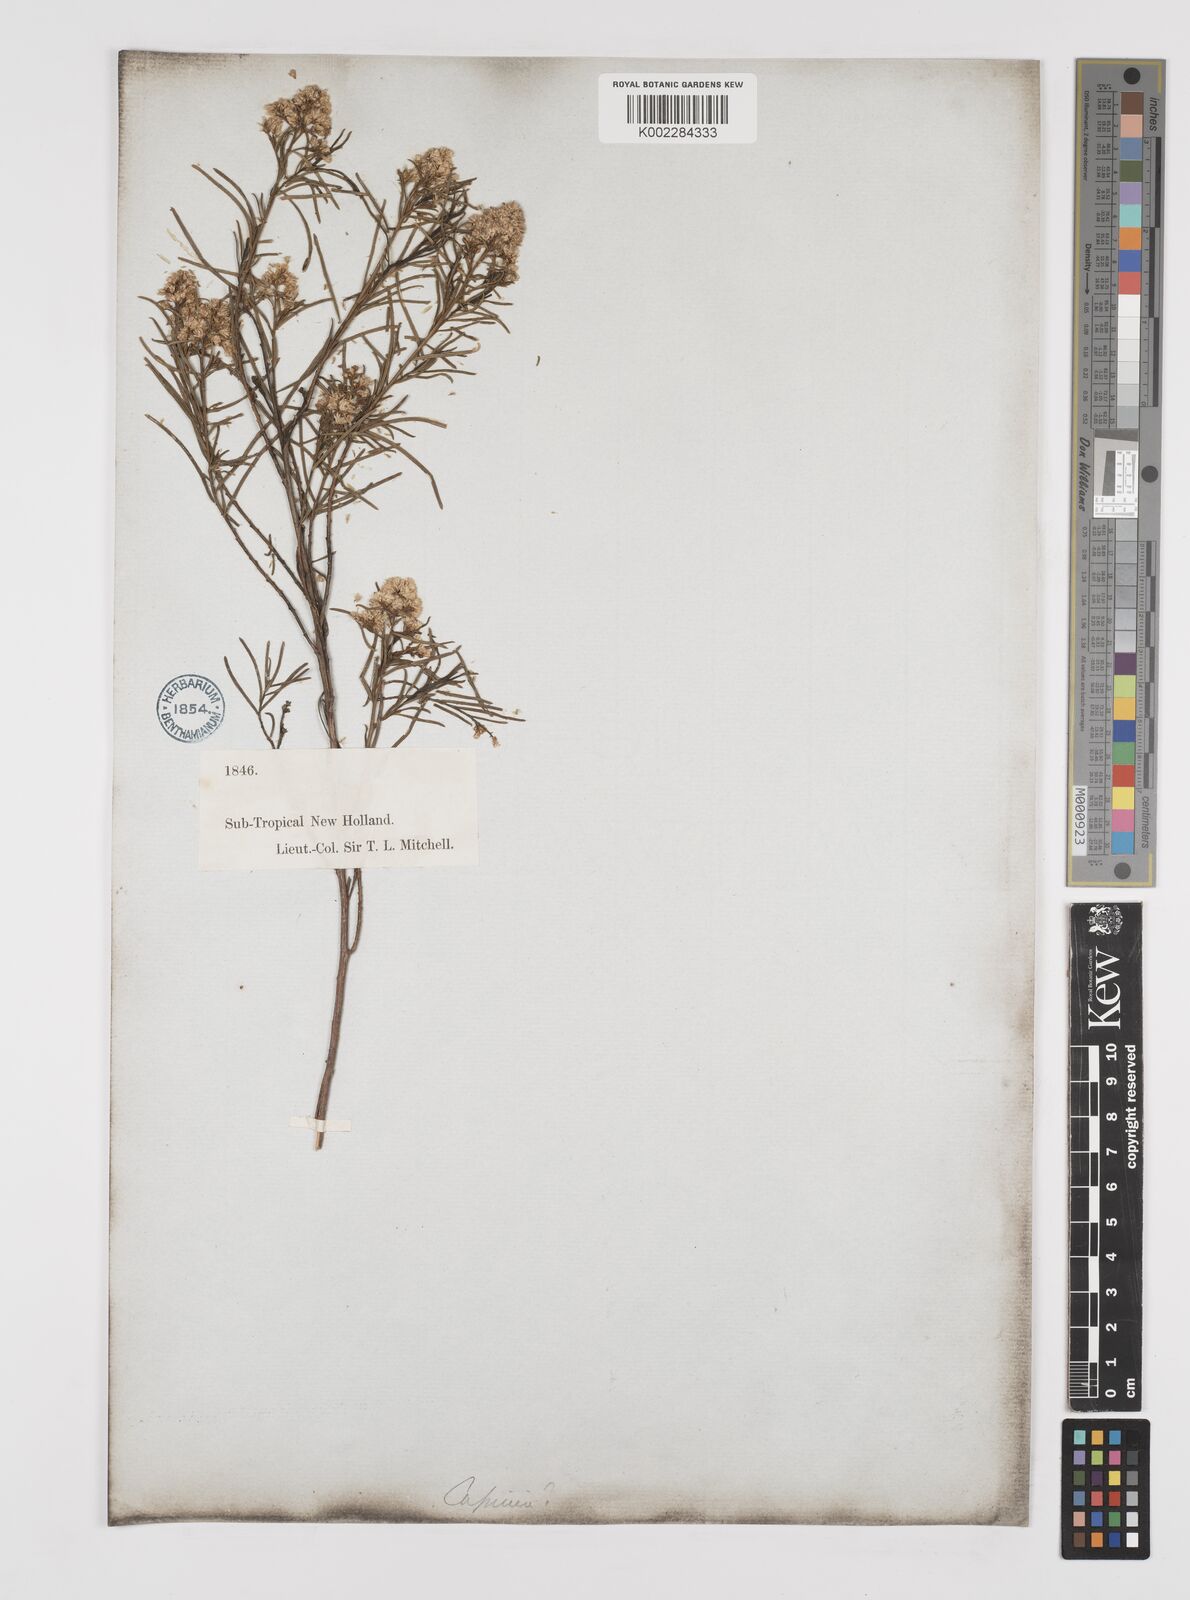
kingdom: Plantae
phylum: Tracheophyta
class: Magnoliopsida
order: Asterales
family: Asteraceae
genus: Cassinia
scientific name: Cassinia quinquefaria
